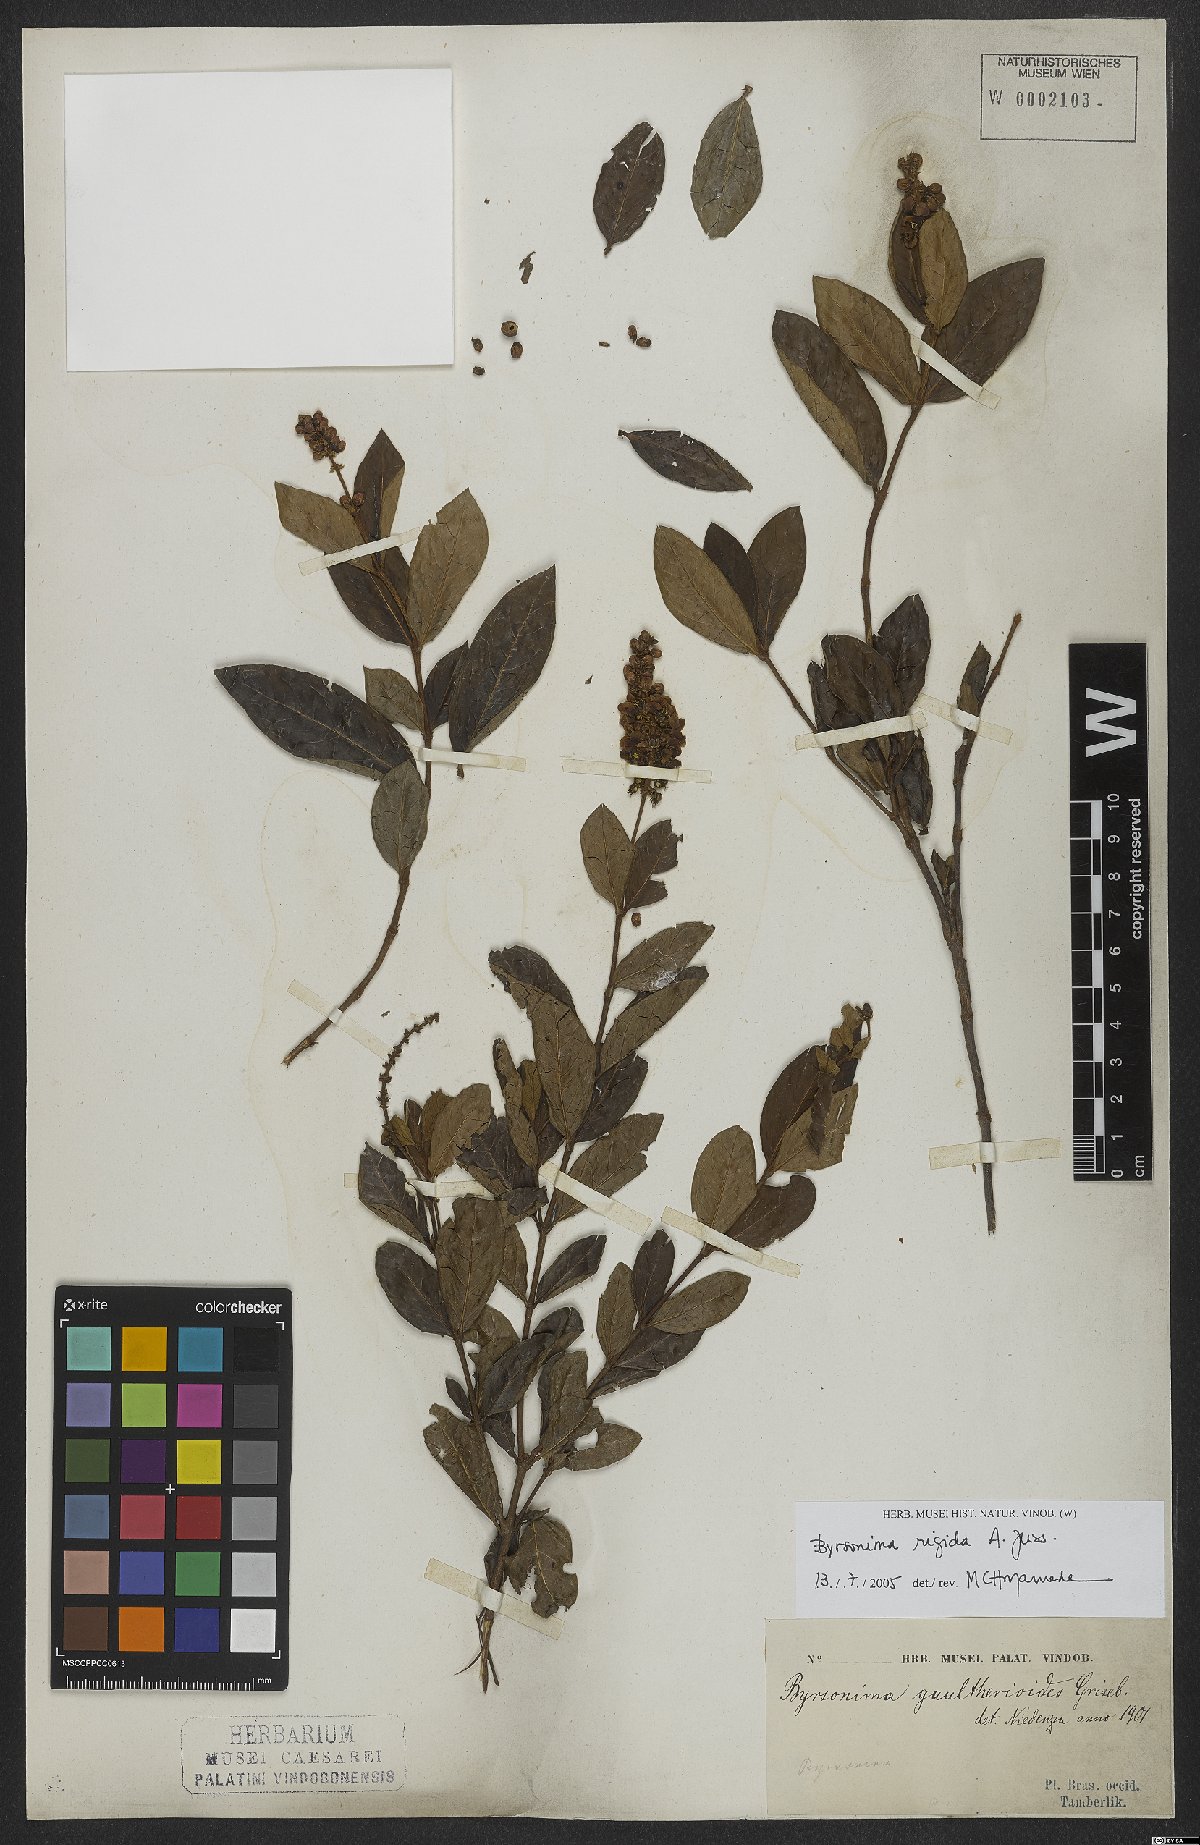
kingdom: Plantae
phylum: Tracheophyta
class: Magnoliopsida
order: Malpighiales
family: Malpighiaceae
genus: Byrsonima
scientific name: Byrsonima rigida
